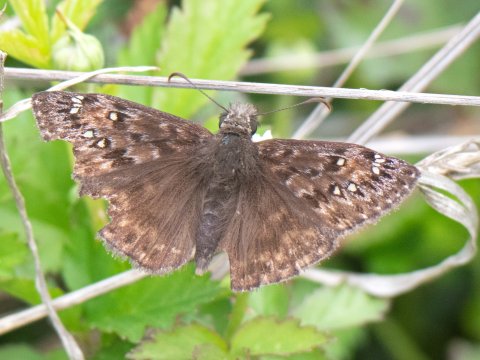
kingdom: Animalia
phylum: Arthropoda
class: Insecta
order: Lepidoptera
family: Hesperiidae
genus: Gesta
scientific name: Gesta
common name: Juvenal's Duskywing
